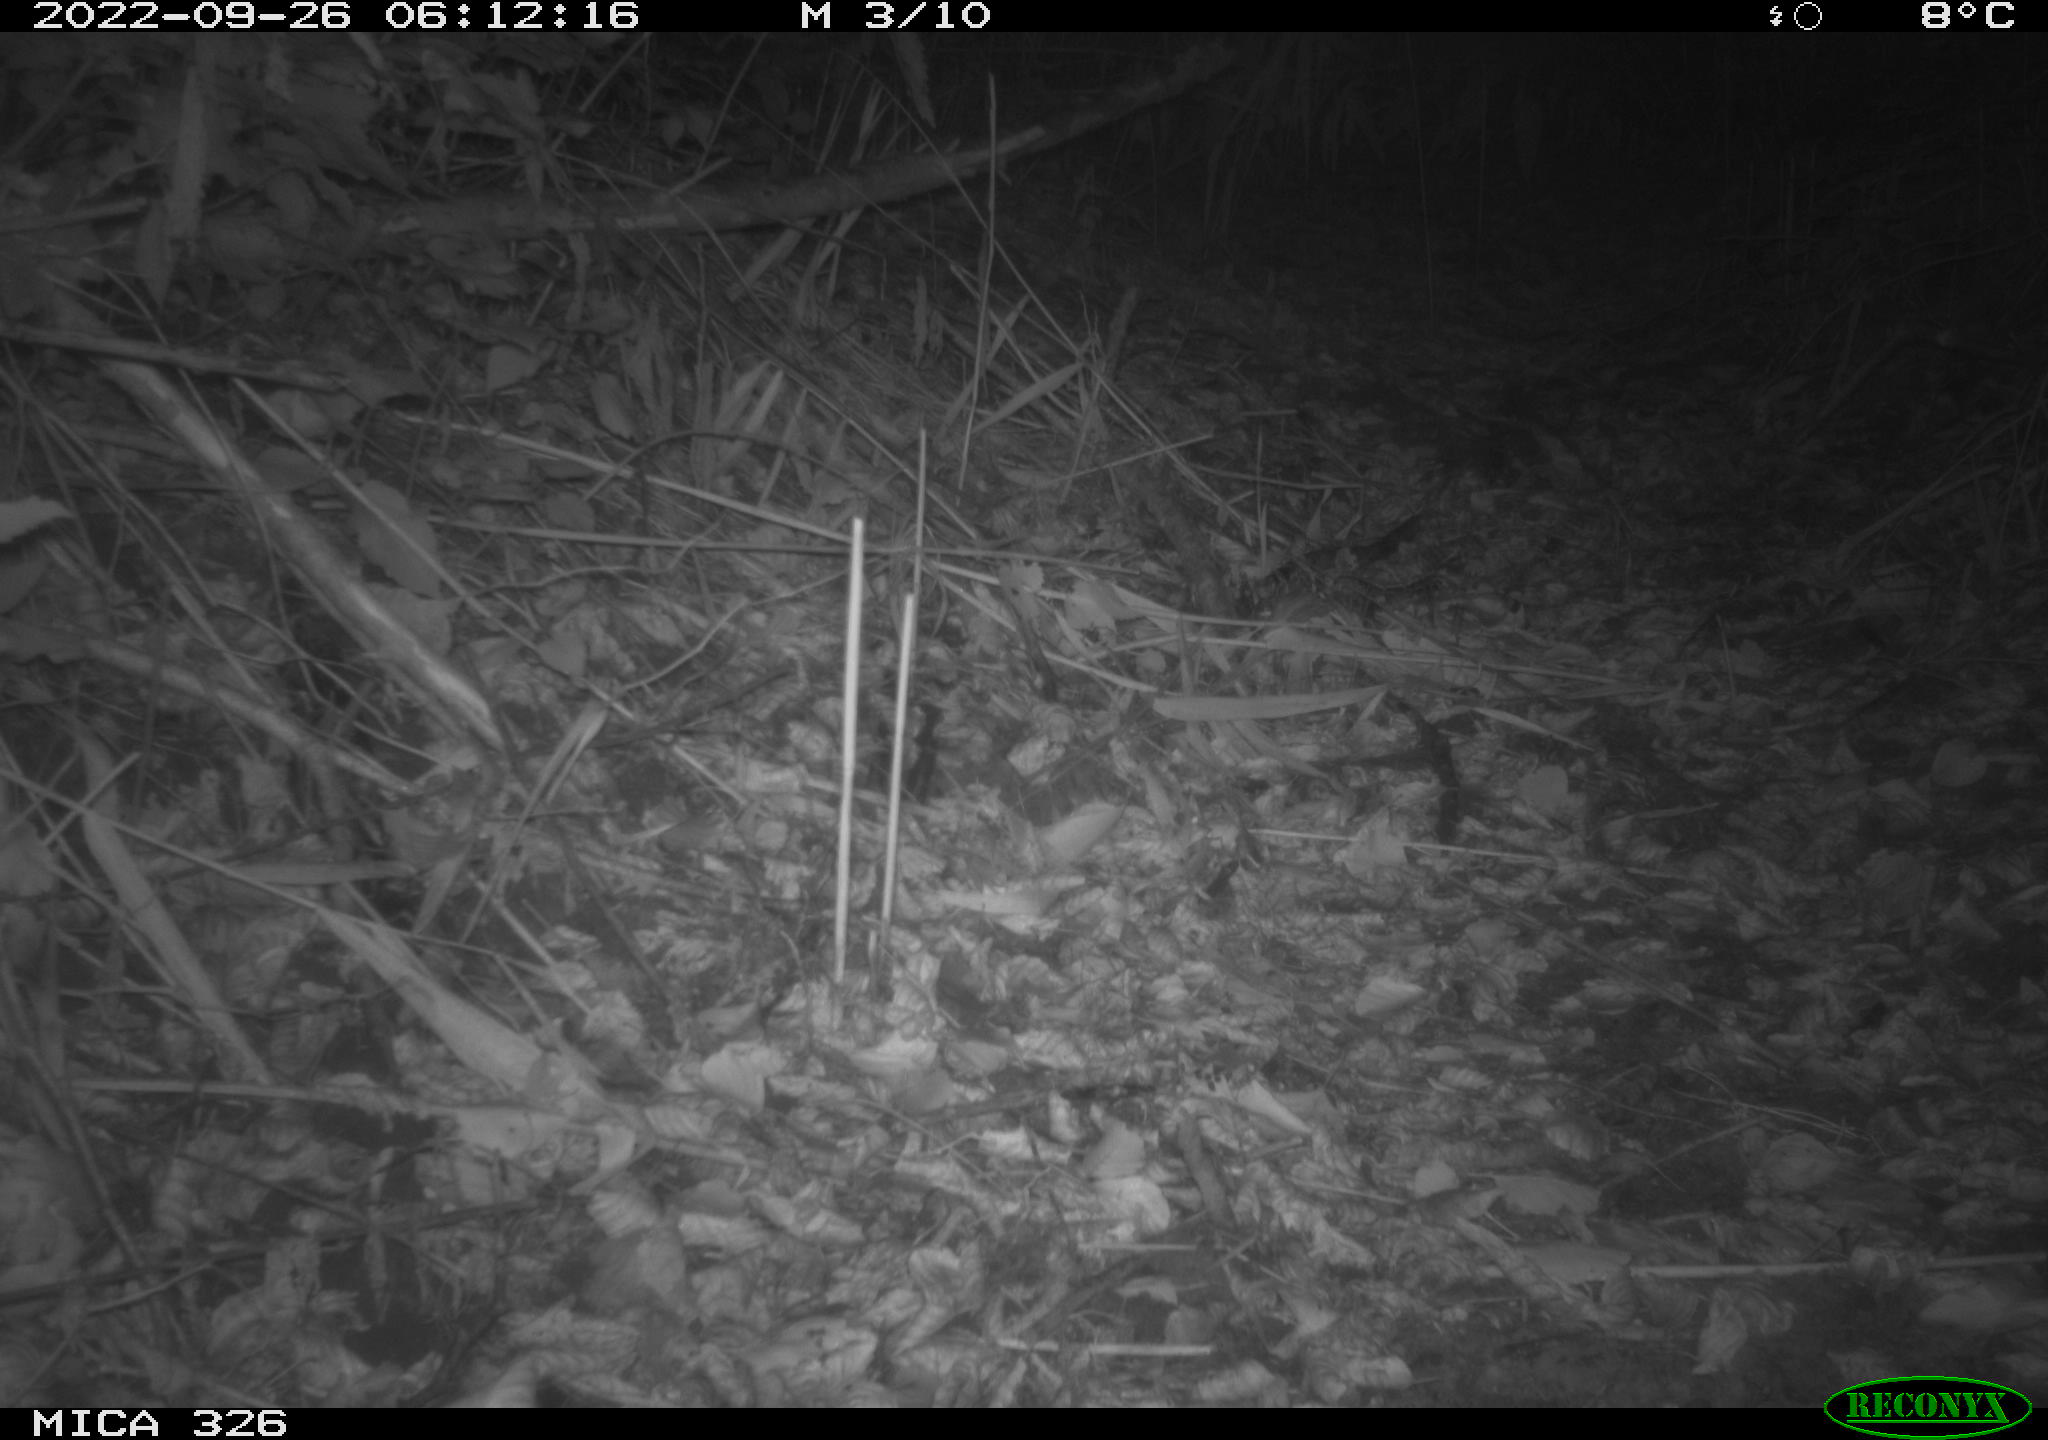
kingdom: Animalia
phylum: Chordata
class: Mammalia
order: Rodentia
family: Muridae
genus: Rattus
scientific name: Rattus norvegicus
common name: Brown rat
